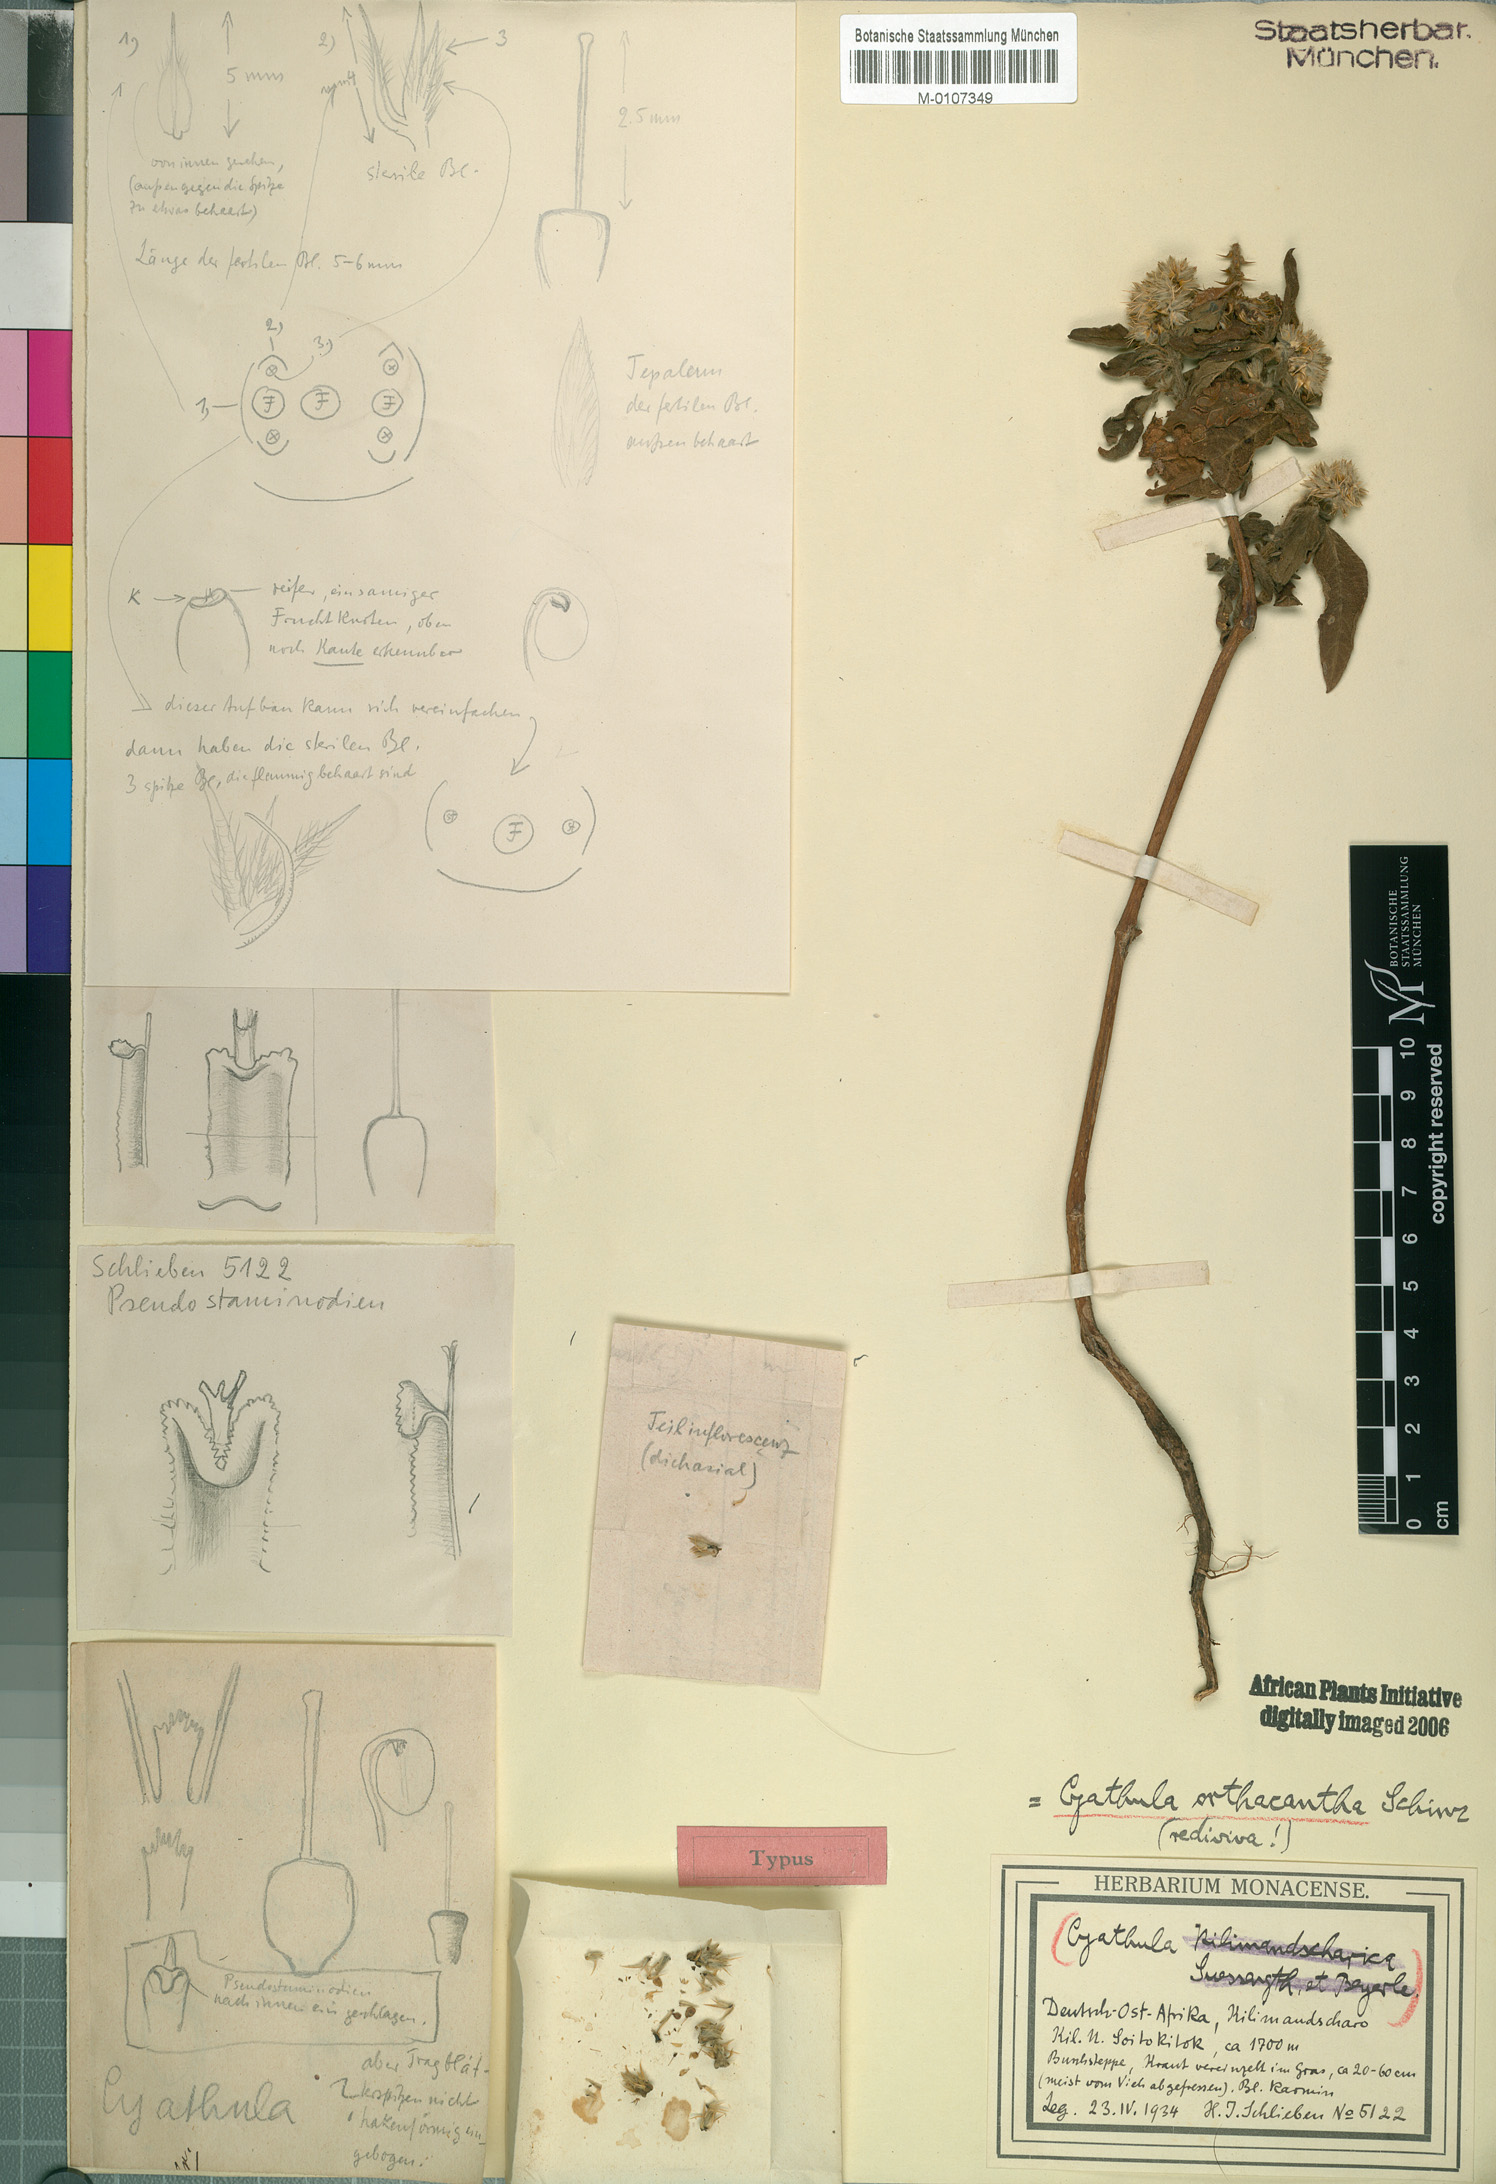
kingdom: Plantae
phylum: Tracheophyta
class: Magnoliopsida
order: Caryophyllales
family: Amaranthaceae
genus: Cyathula
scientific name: Cyathula orthacantha
